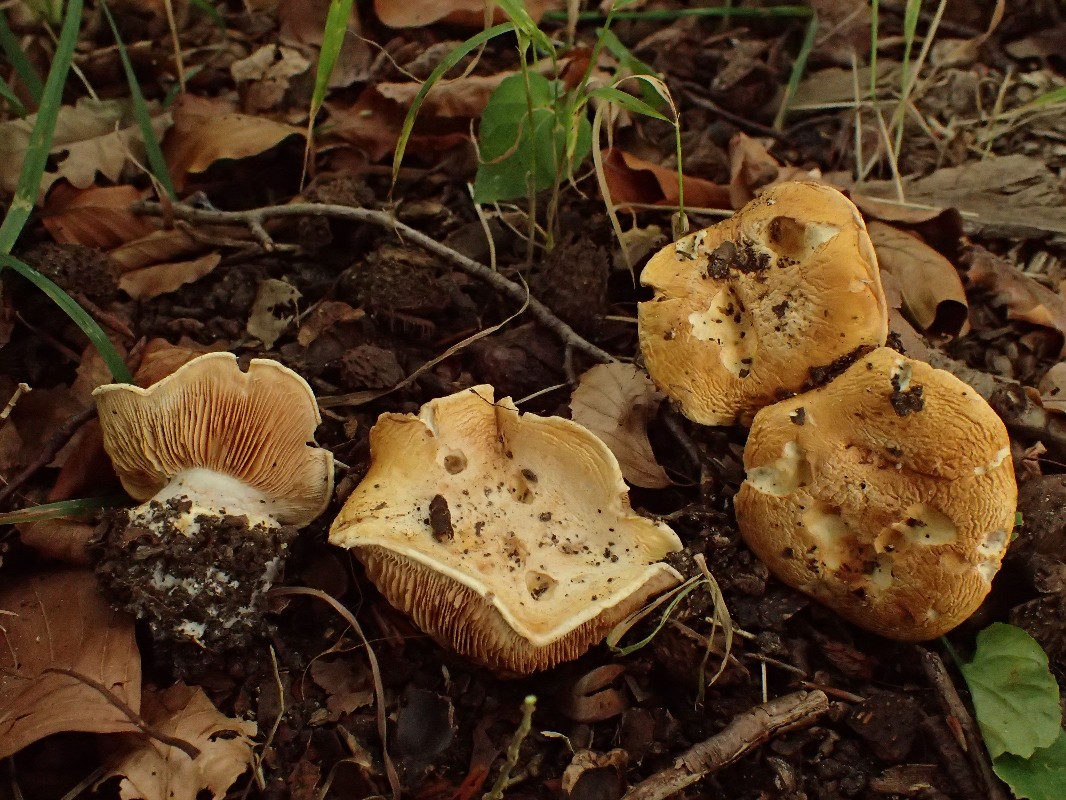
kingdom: Fungi
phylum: Basidiomycota
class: Agaricomycetes
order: Agaricales
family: Cortinariaceae
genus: Phlegmacium
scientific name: Phlegmacium caesiocortinatum
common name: rundsporet slørhat
